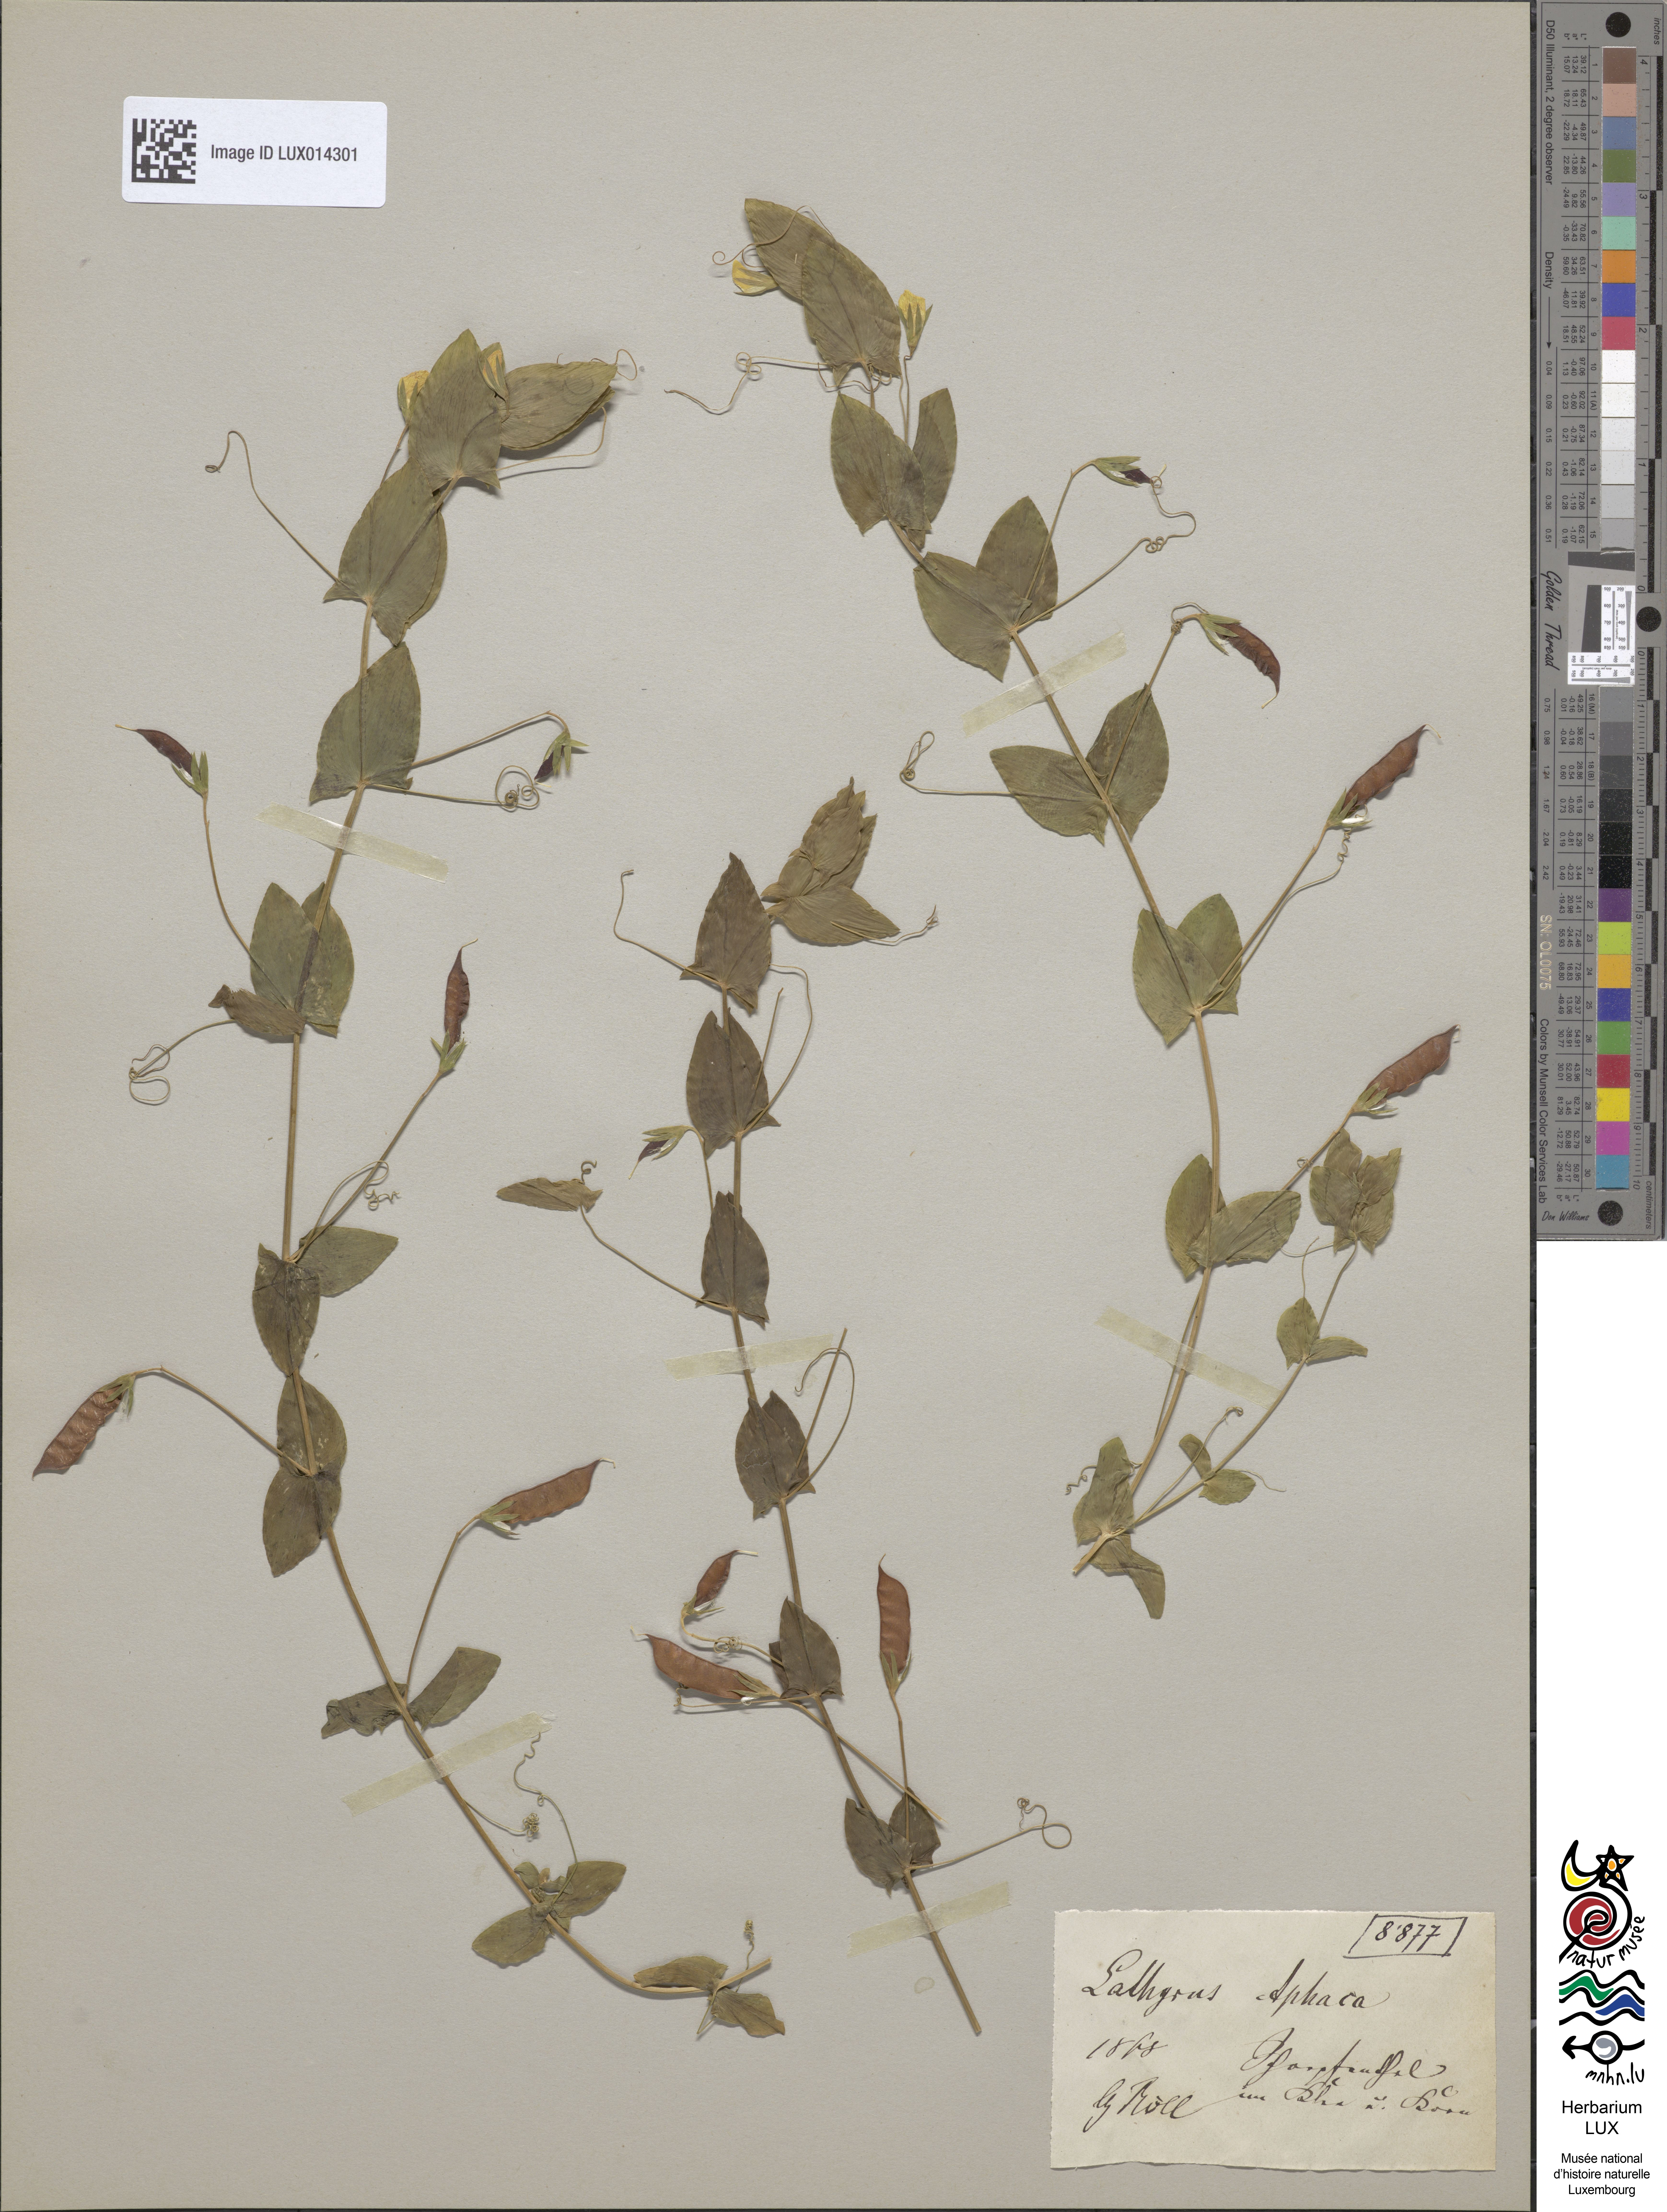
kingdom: Plantae
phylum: Tracheophyta
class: Magnoliopsida
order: Fabales
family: Fabaceae
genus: Lathyrus
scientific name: Lathyrus aphaca
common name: Yellow vetchling
